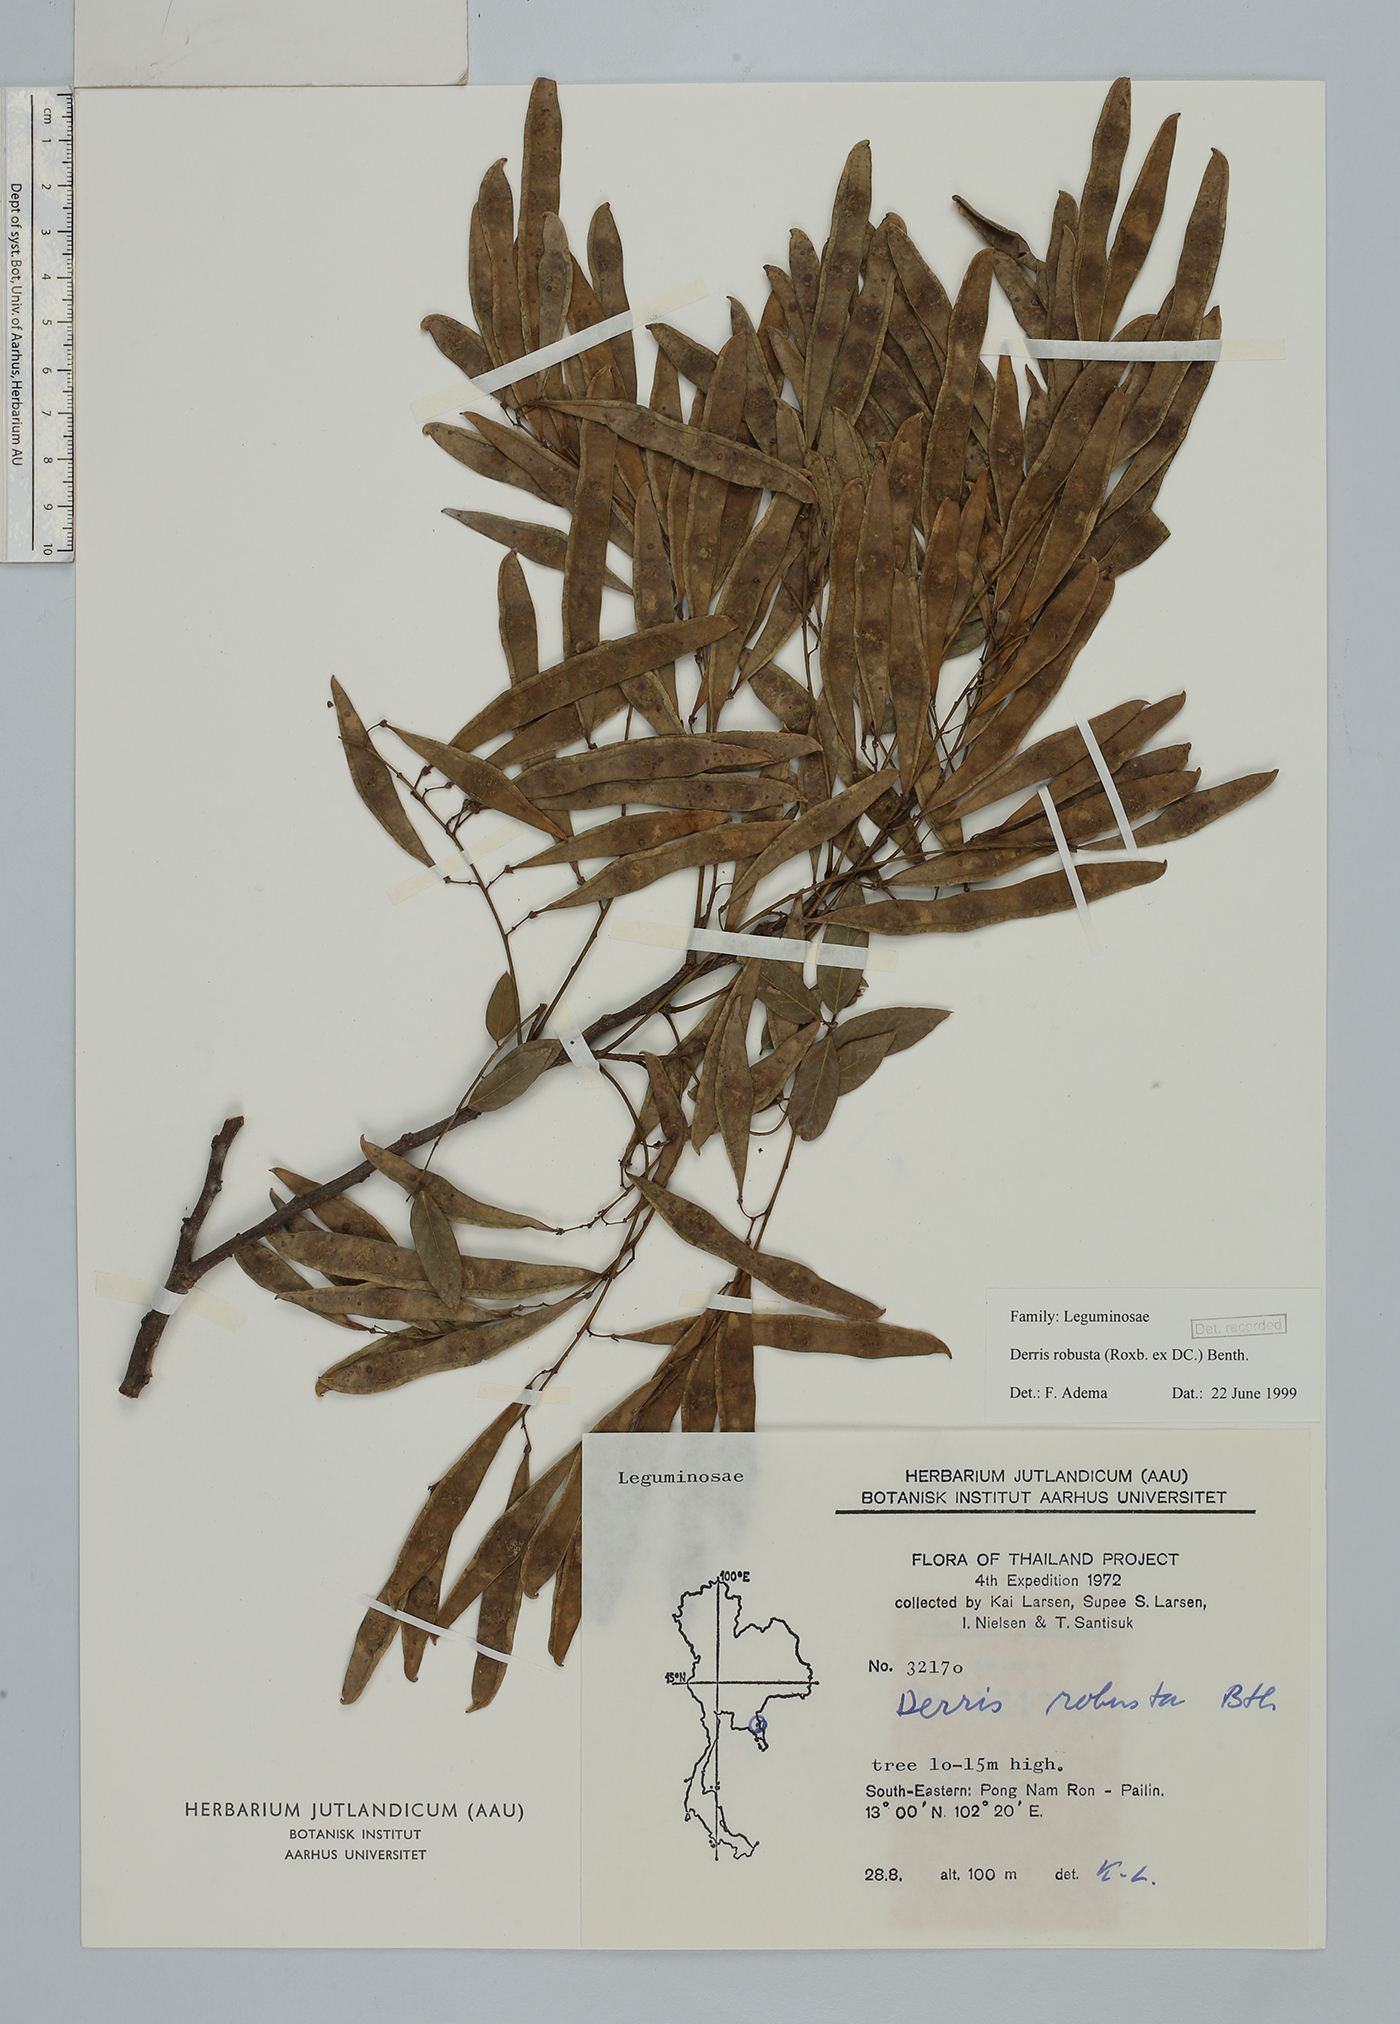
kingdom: Plantae
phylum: Tracheophyta
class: Magnoliopsida
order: Fabales
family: Fabaceae
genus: Brachypterum
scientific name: Brachypterum robustum
